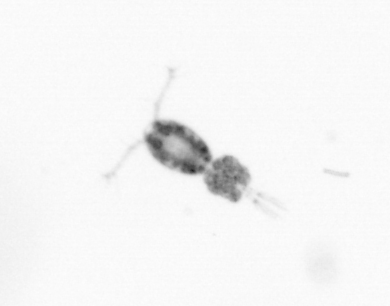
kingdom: Animalia
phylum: Arthropoda
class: Copepoda
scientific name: Copepoda
